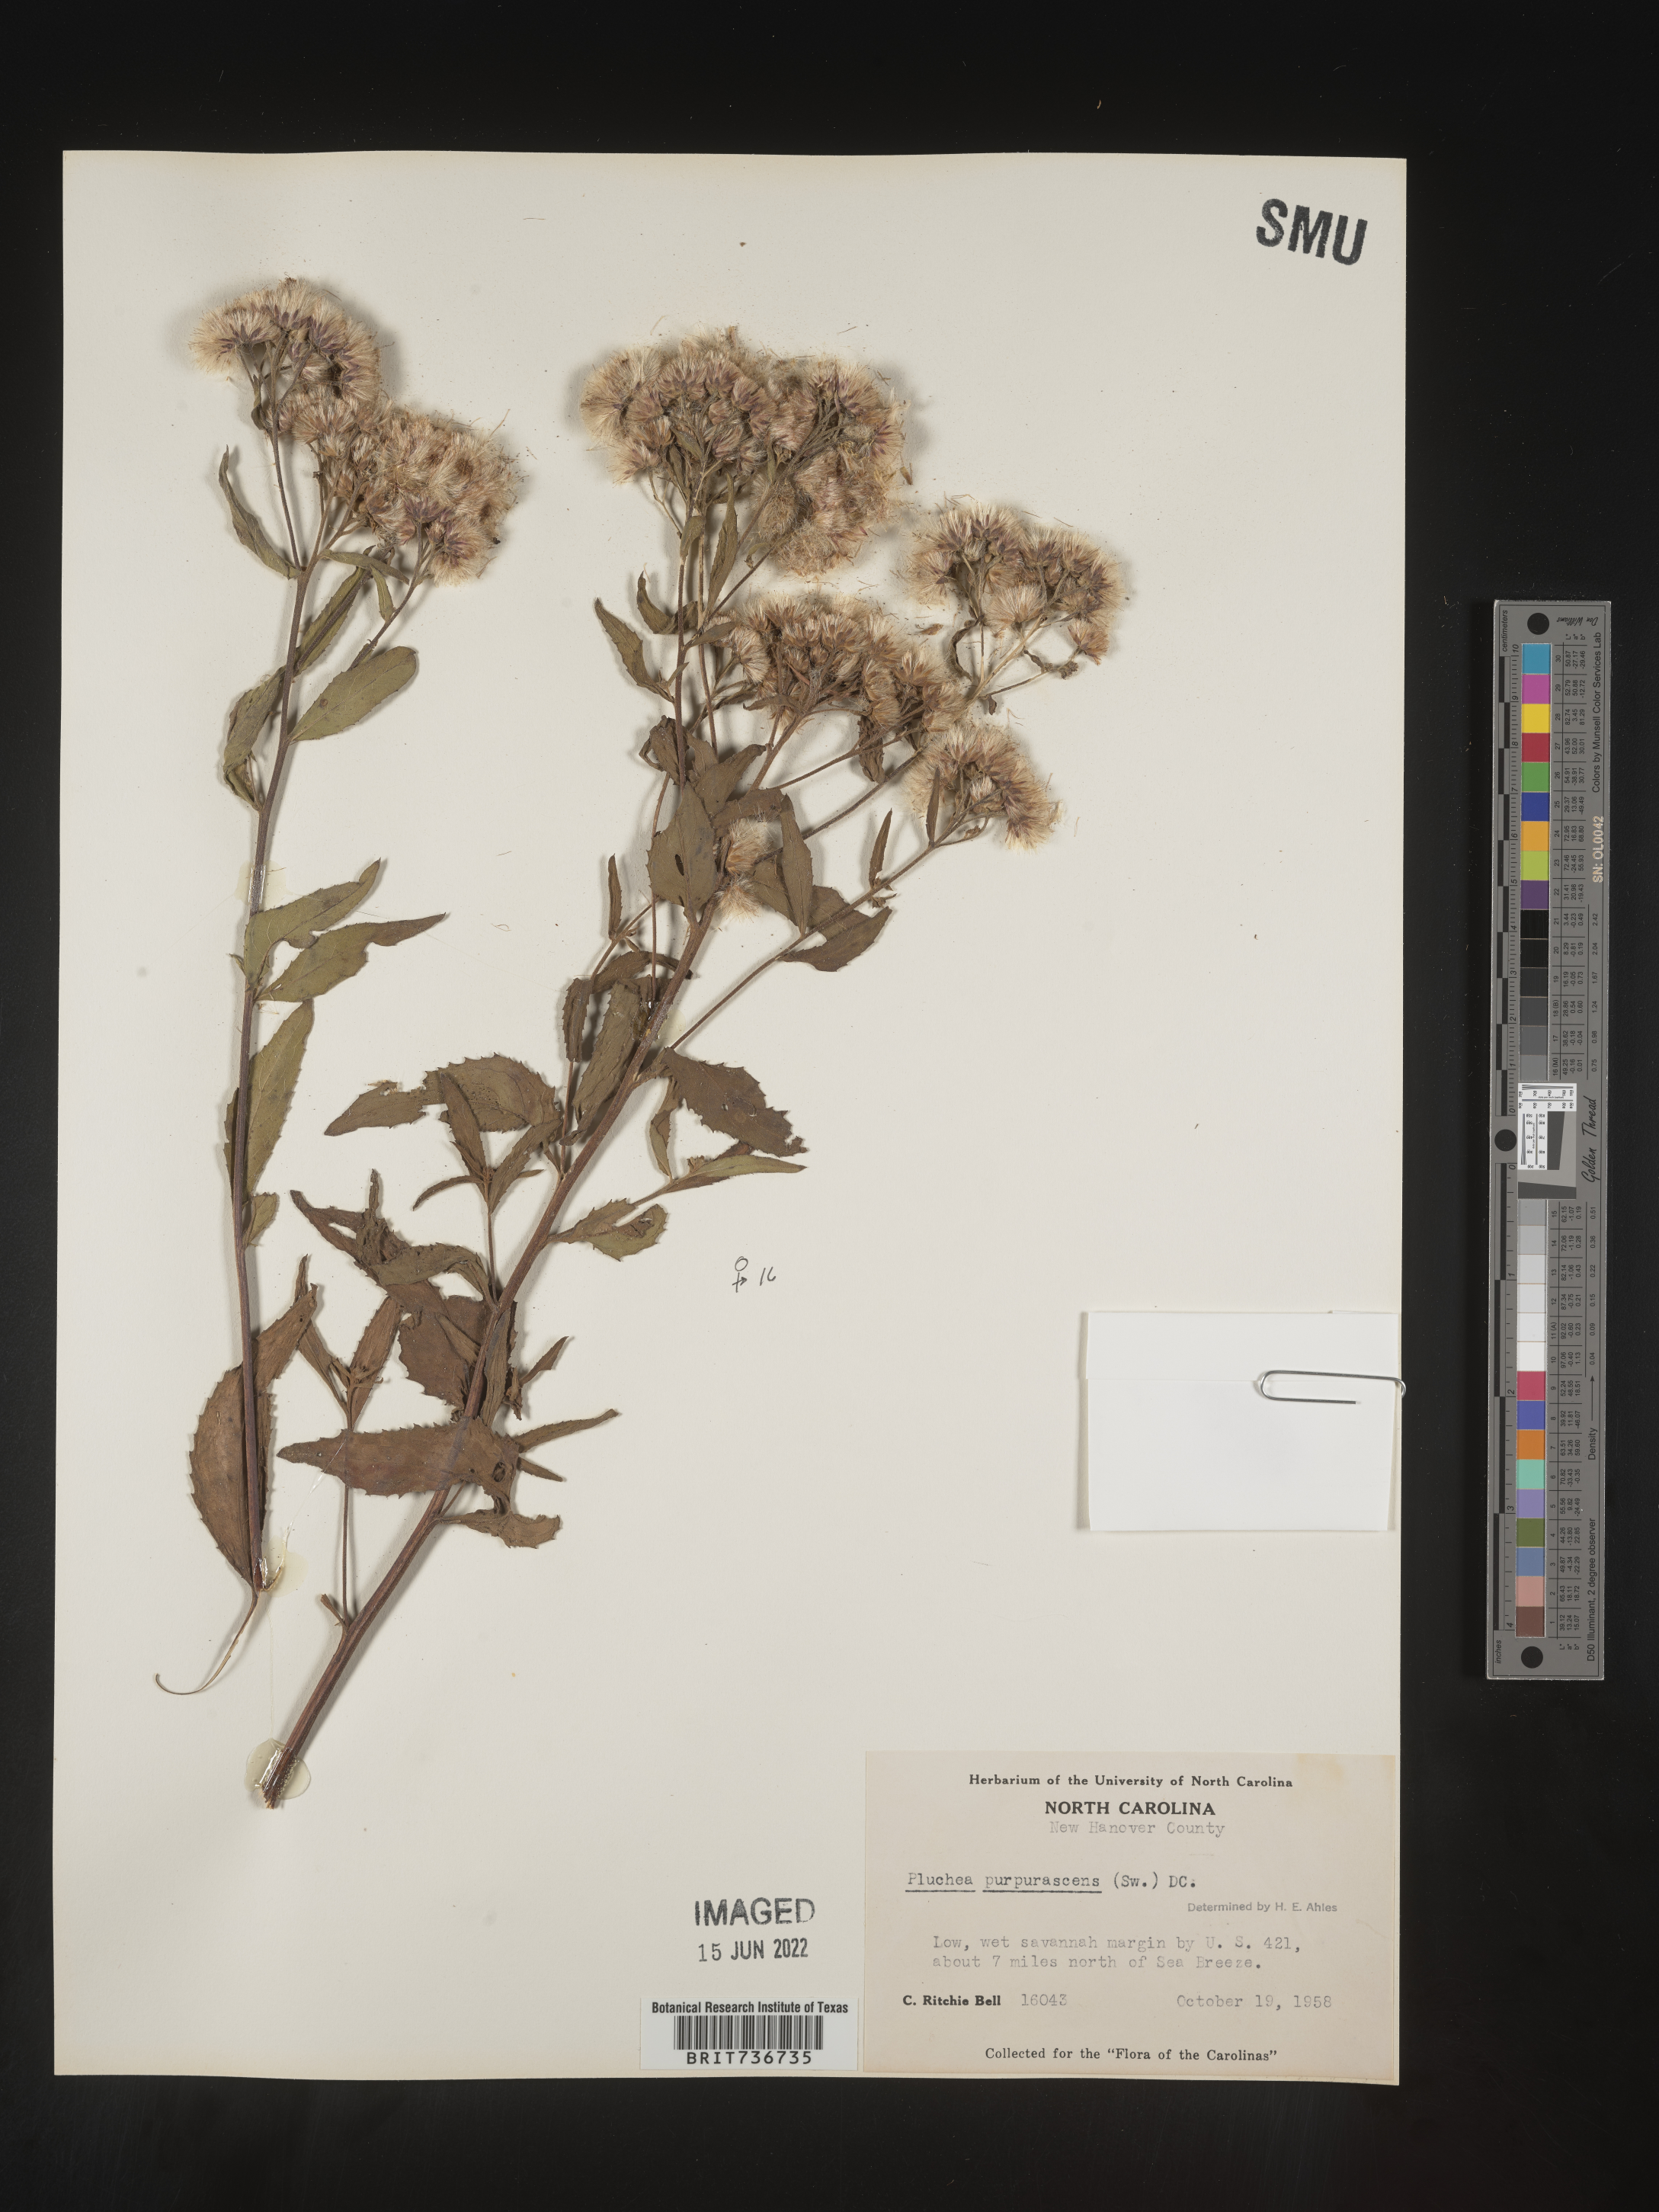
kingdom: Plantae
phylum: Tracheophyta
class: Magnoliopsida
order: Asterales
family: Asteraceae
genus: Pluchea
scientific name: Pluchea odorata
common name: Saltmarsh fleabane
